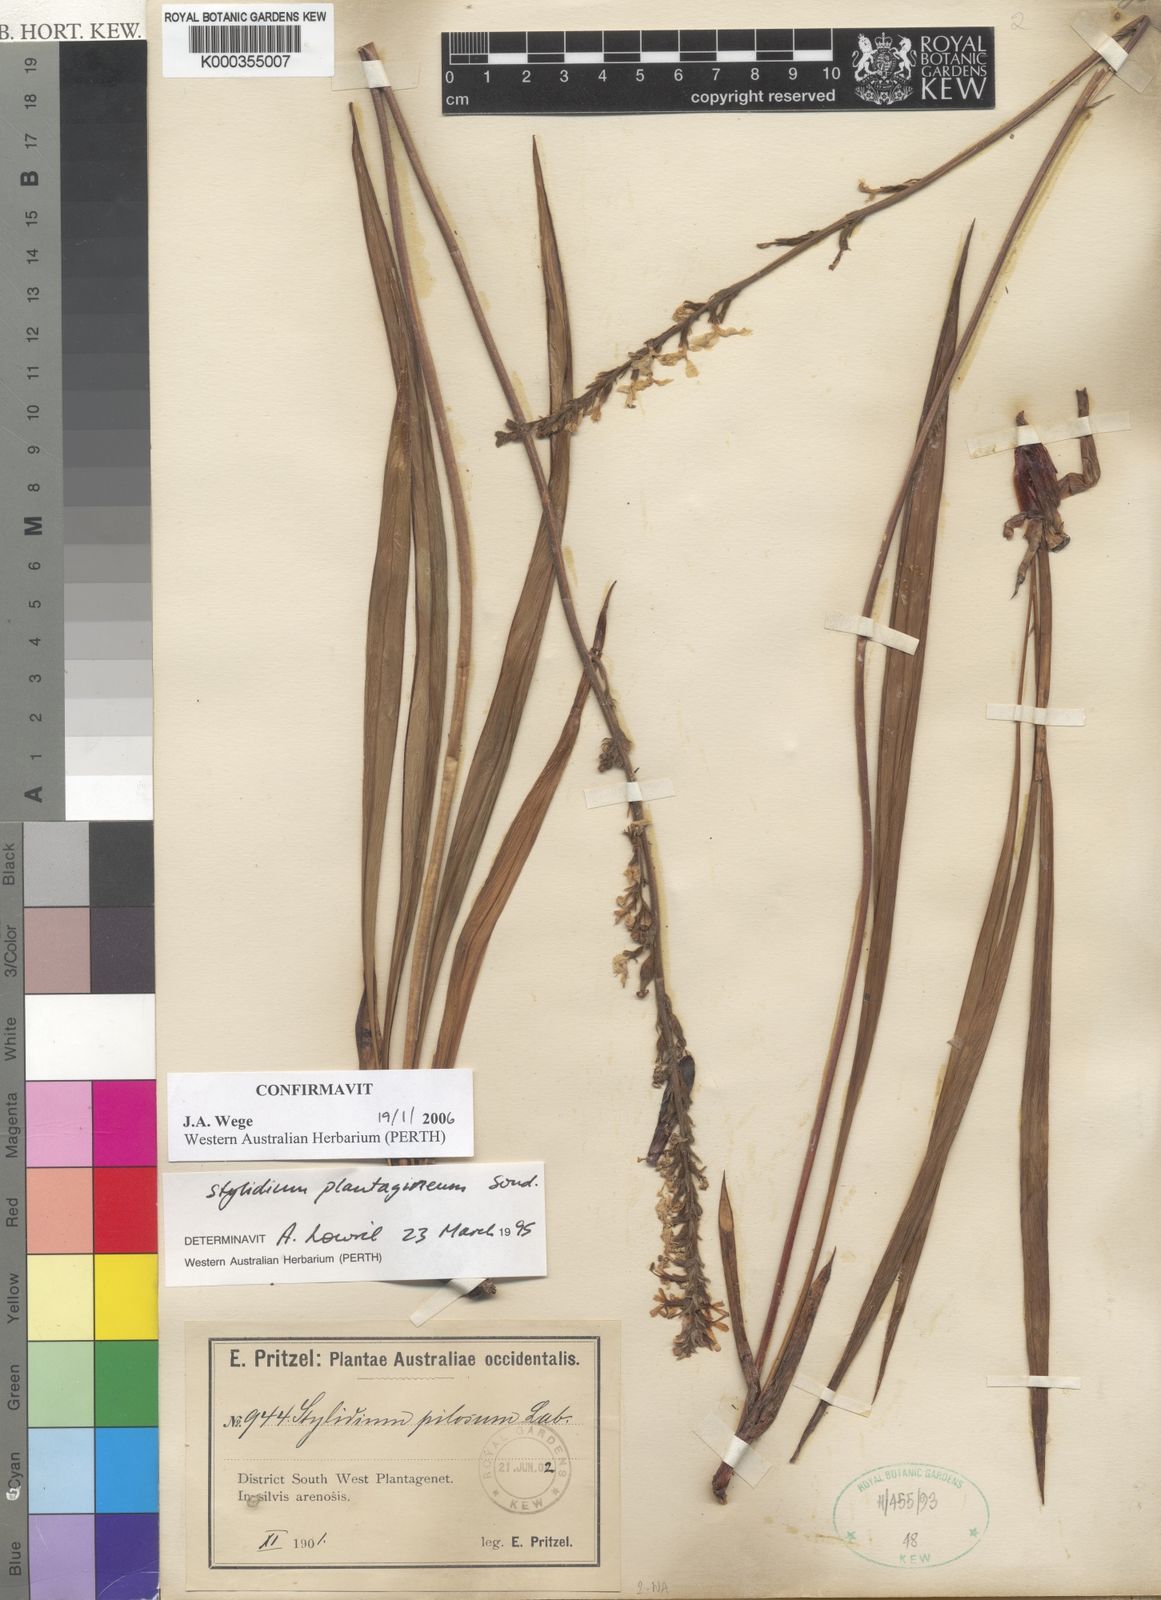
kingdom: Plantae
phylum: Tracheophyta
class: Magnoliopsida
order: Asterales
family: Stylidiaceae
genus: Stylidium
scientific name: Stylidium plantagineum
